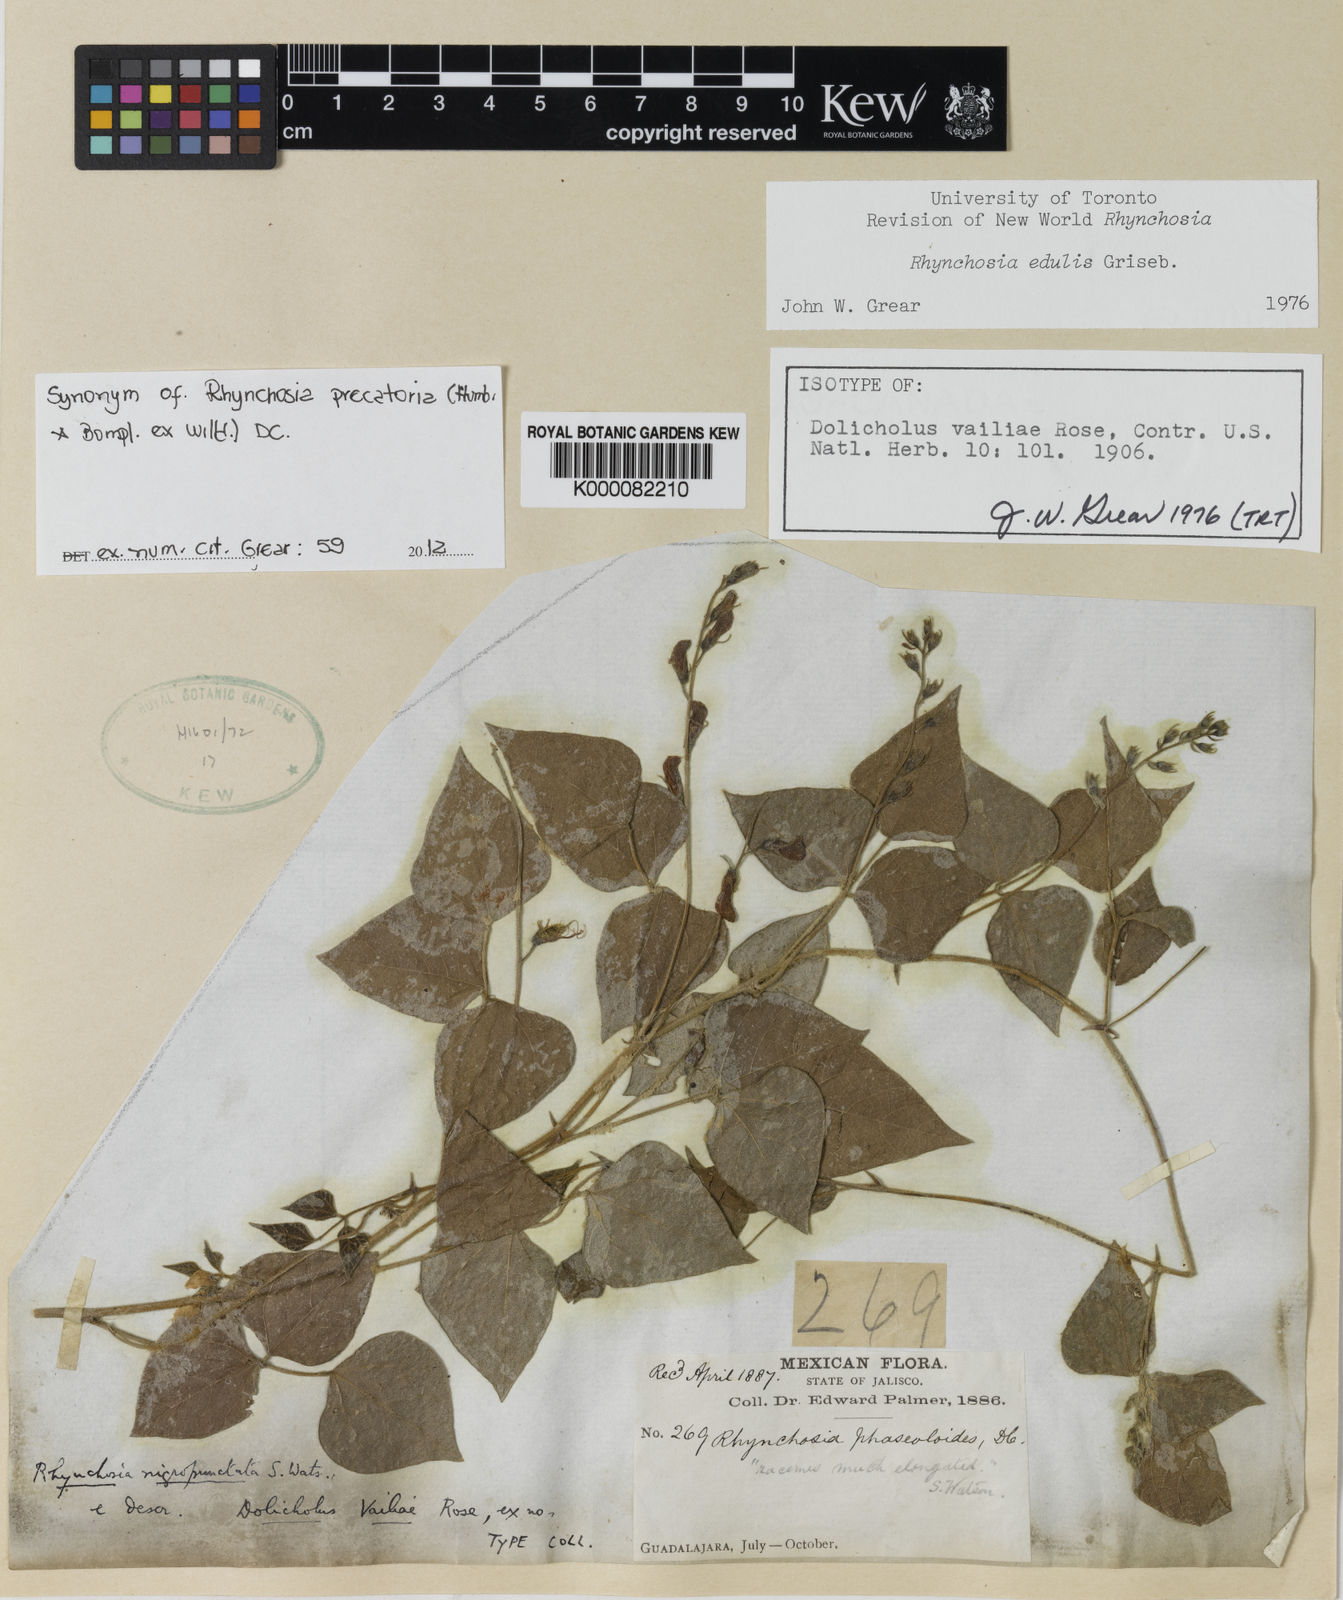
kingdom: Plantae
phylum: Tracheophyta
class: Magnoliopsida
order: Fabales
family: Fabaceae
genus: Dolichos
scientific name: Dolichos
